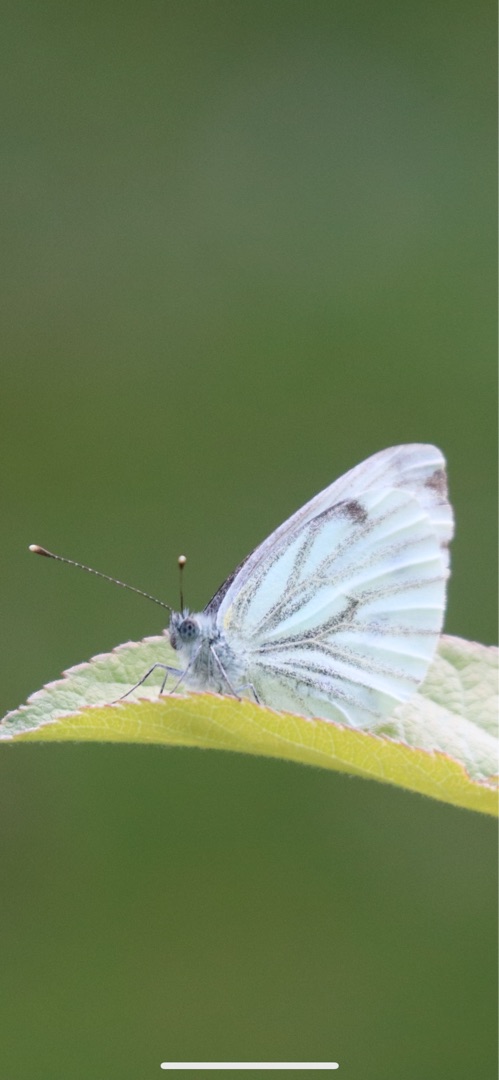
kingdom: Animalia
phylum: Arthropoda
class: Insecta
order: Lepidoptera
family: Pieridae
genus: Pieris
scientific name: Pieris napi
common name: Grønåret kålsommerfugl
